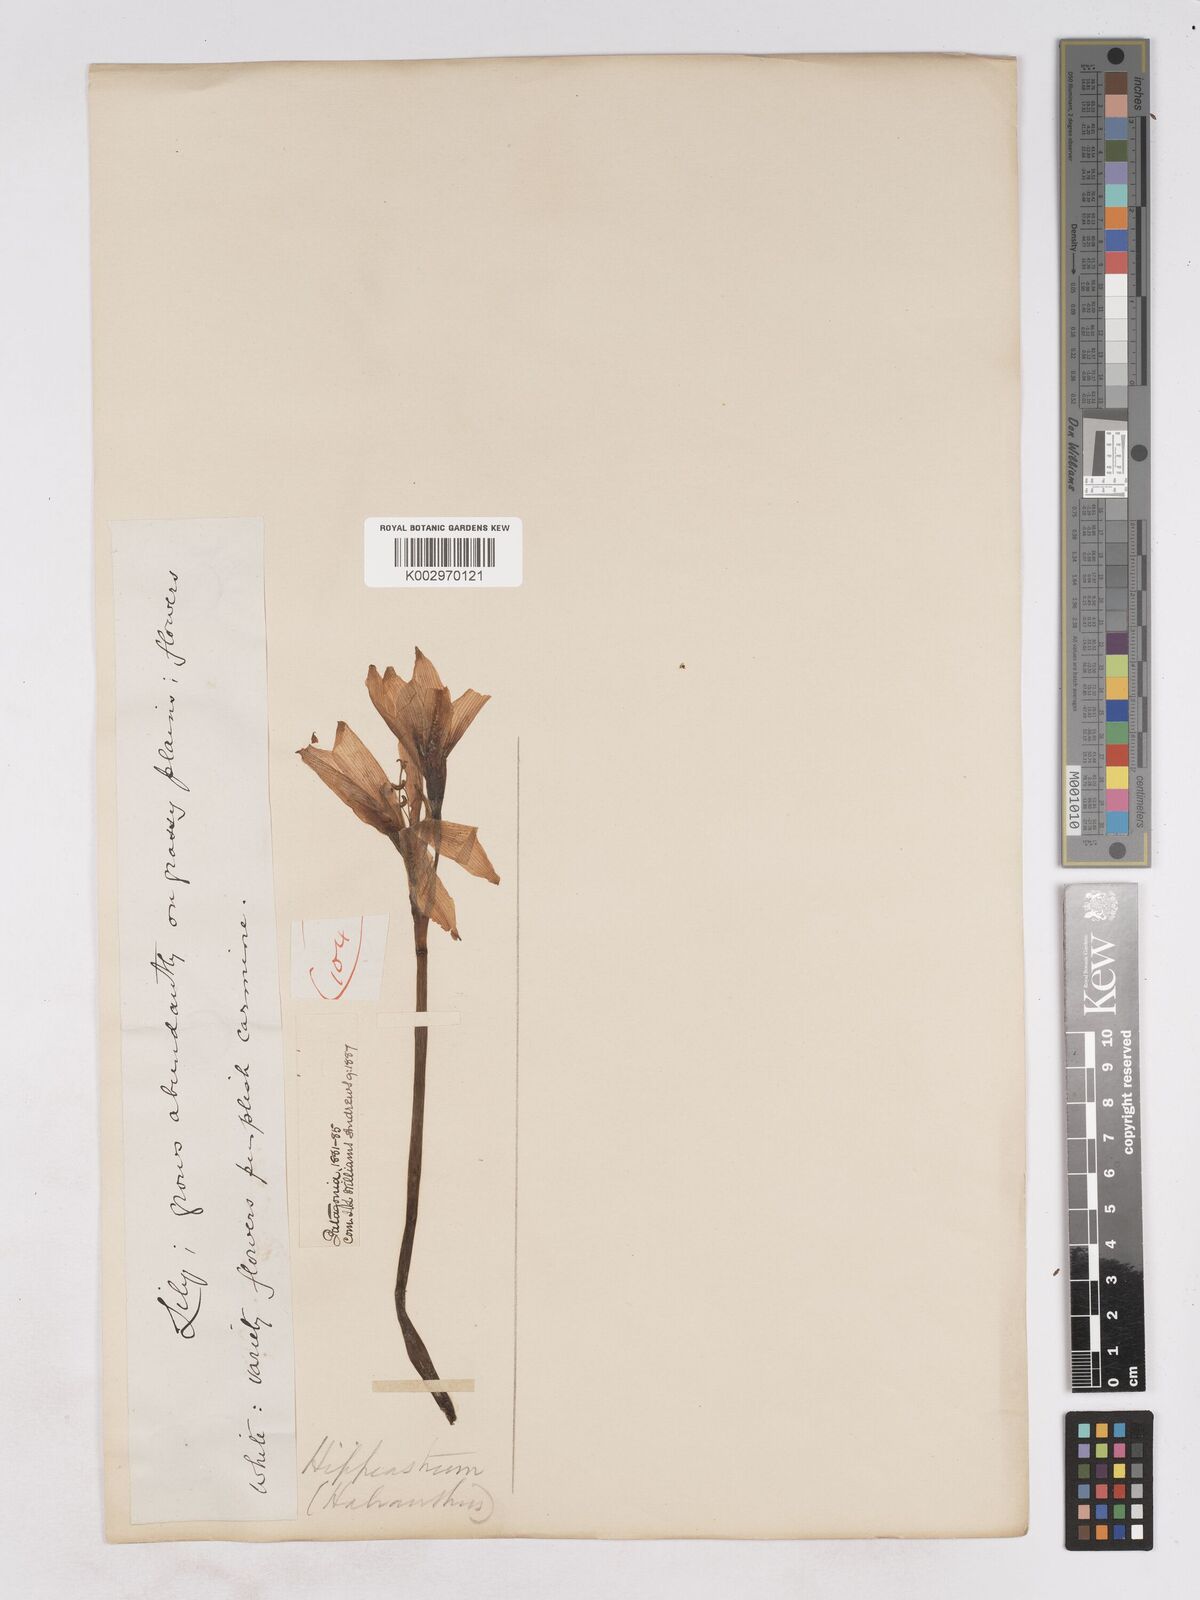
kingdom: Plantae
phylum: Tracheophyta
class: Liliopsida
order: Asparagales
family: Amaryllidaceae
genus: Zephyranthes
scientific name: Zephyranthes bagnoldii
